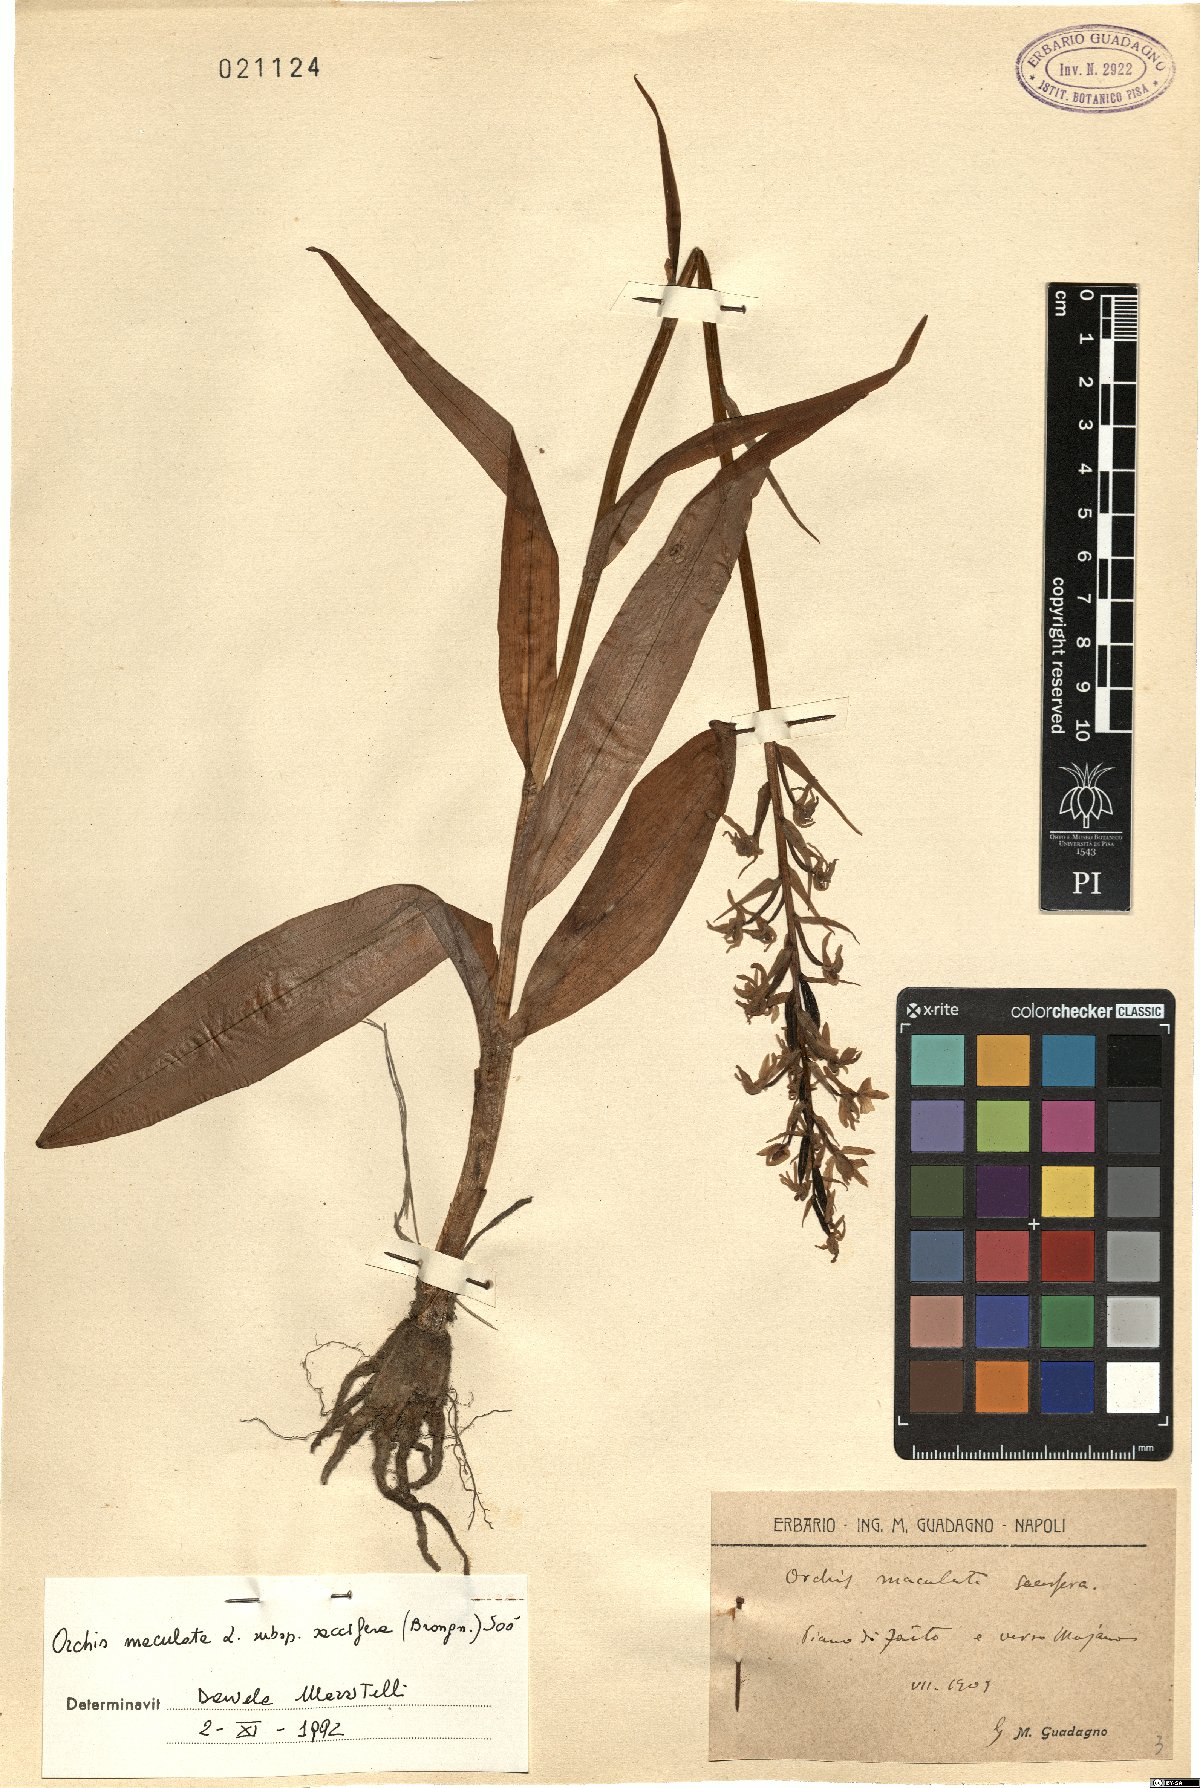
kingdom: Plantae
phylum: Tracheophyta
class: Liliopsida
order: Asparagales
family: Orchidaceae
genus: Dactylorhiza
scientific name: Dactylorhiza maculata
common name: Heath spotted-orchid
